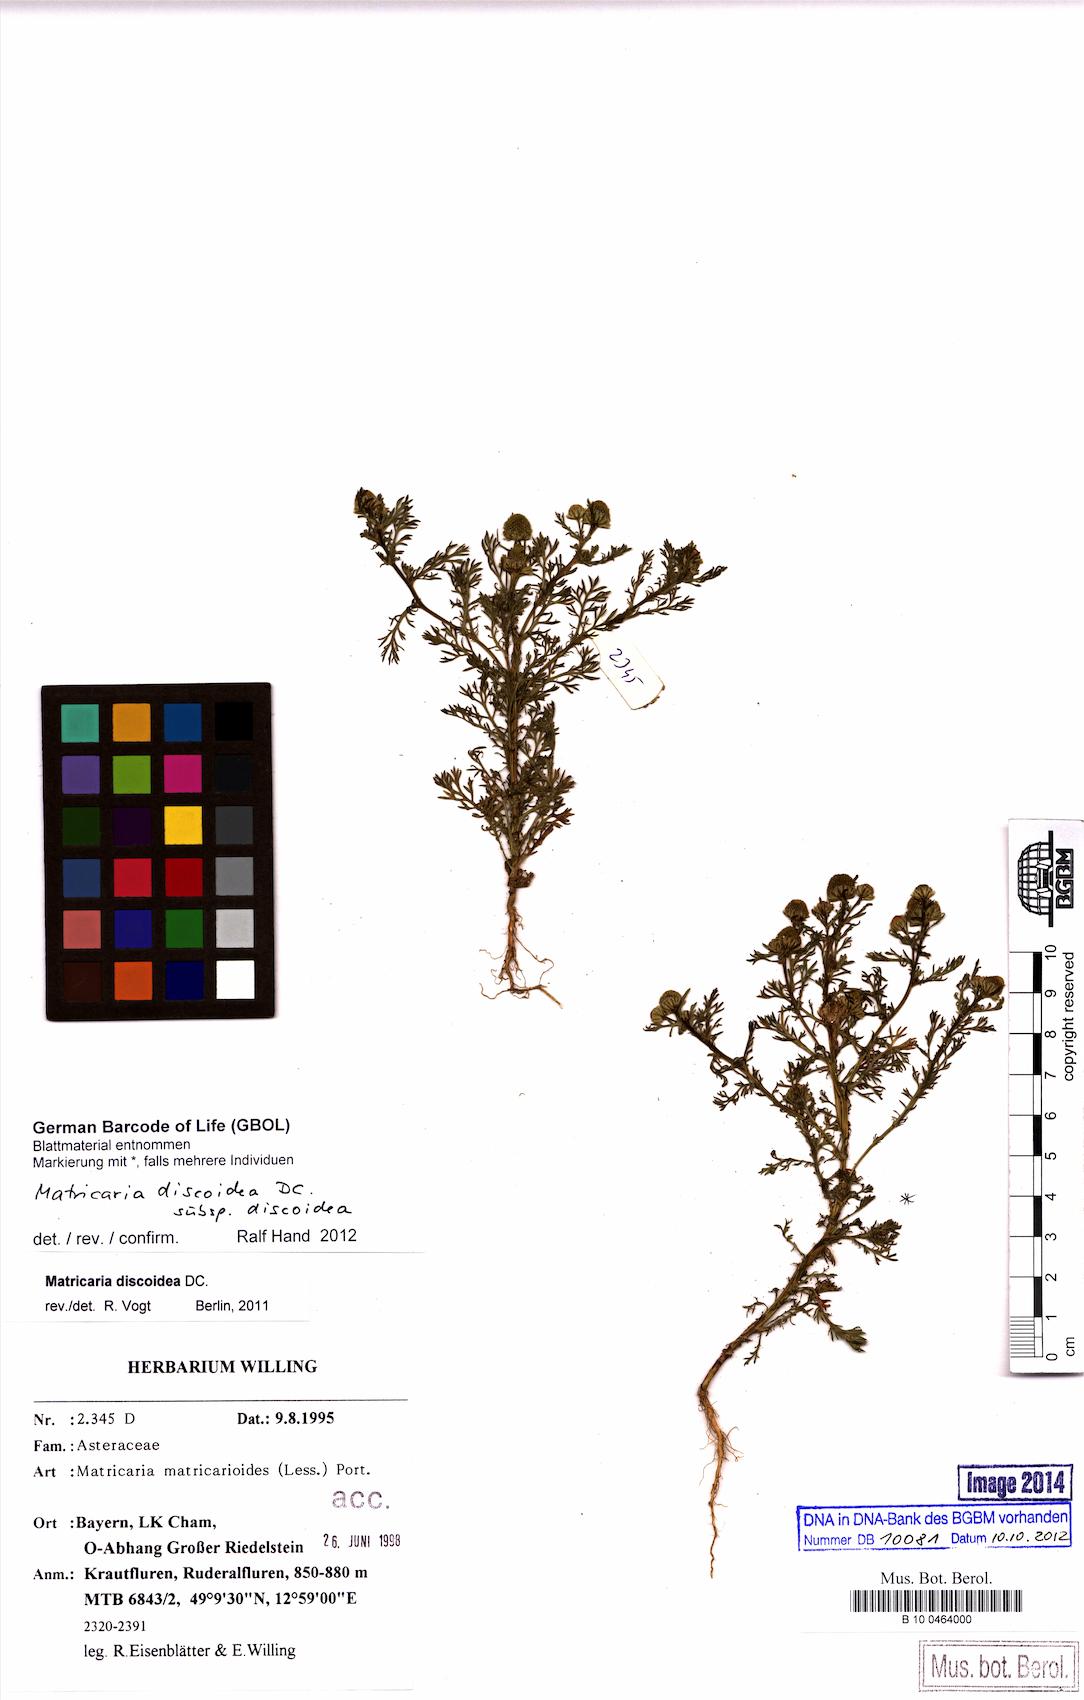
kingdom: Plantae
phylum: Tracheophyta
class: Magnoliopsida
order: Asterales
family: Asteraceae
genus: Matricaria
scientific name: Matricaria discoidea
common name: Disc mayweed
